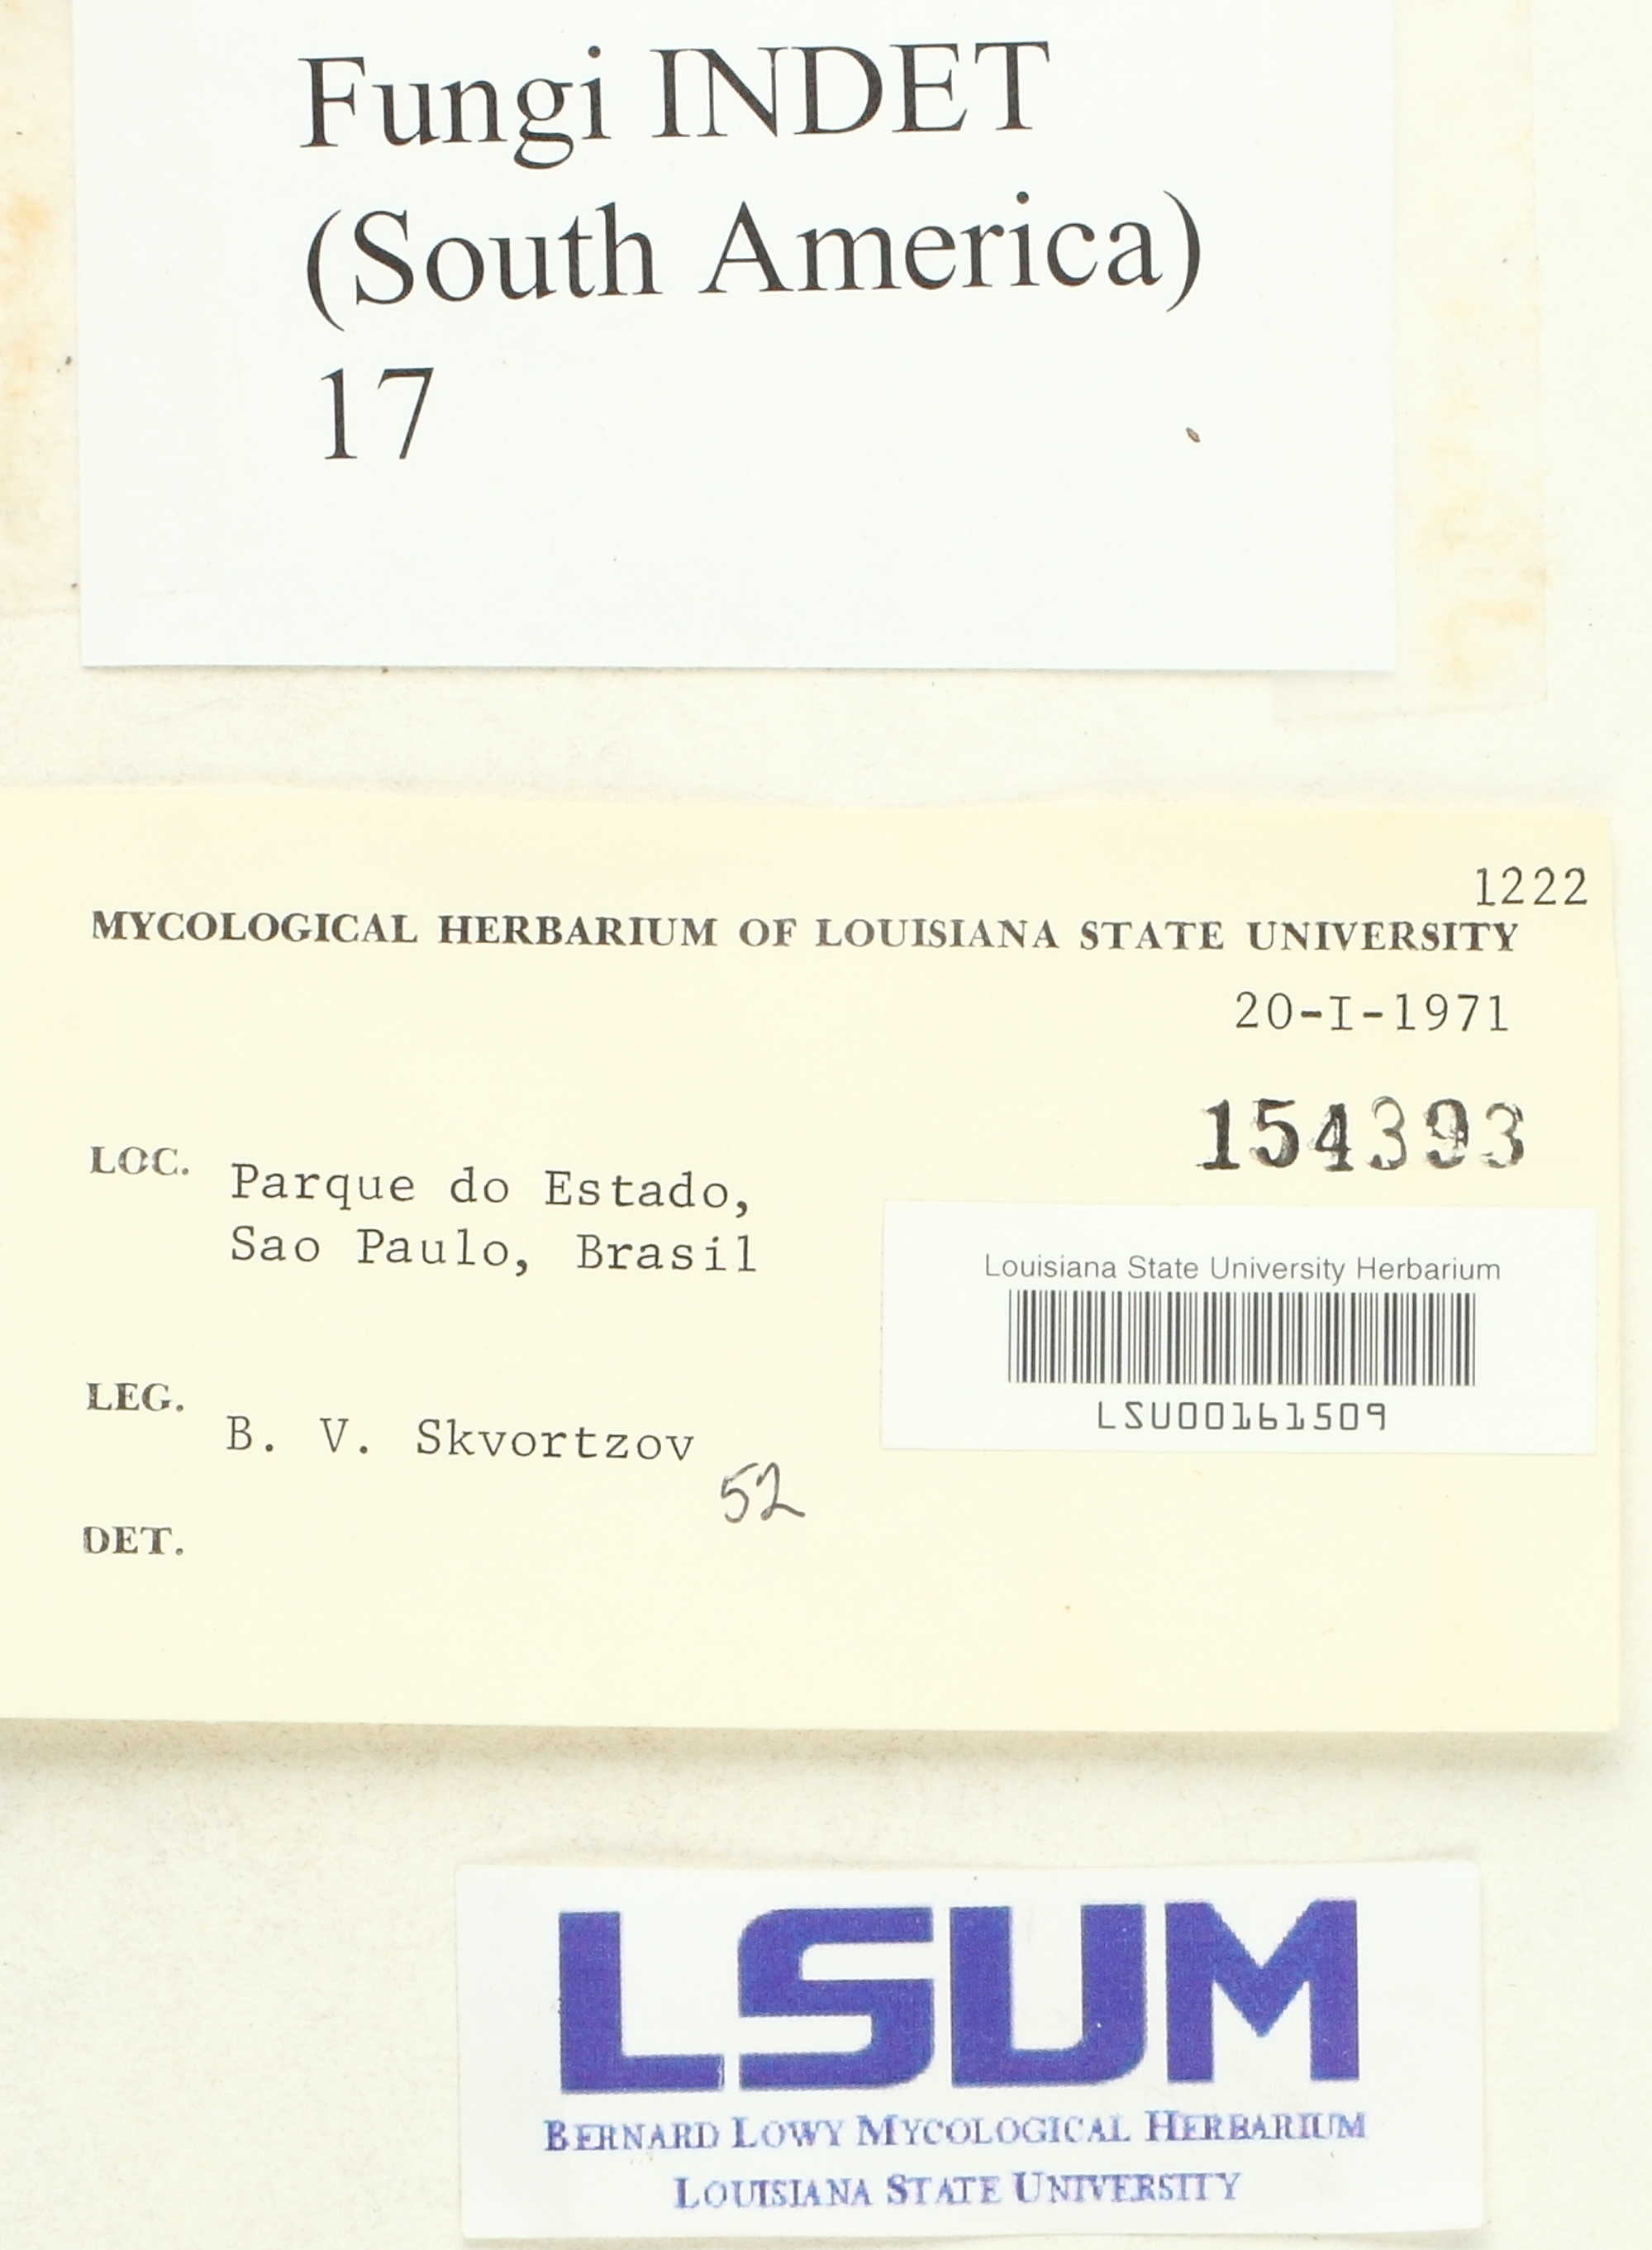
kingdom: Fungi
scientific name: Fungi
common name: Fungi
